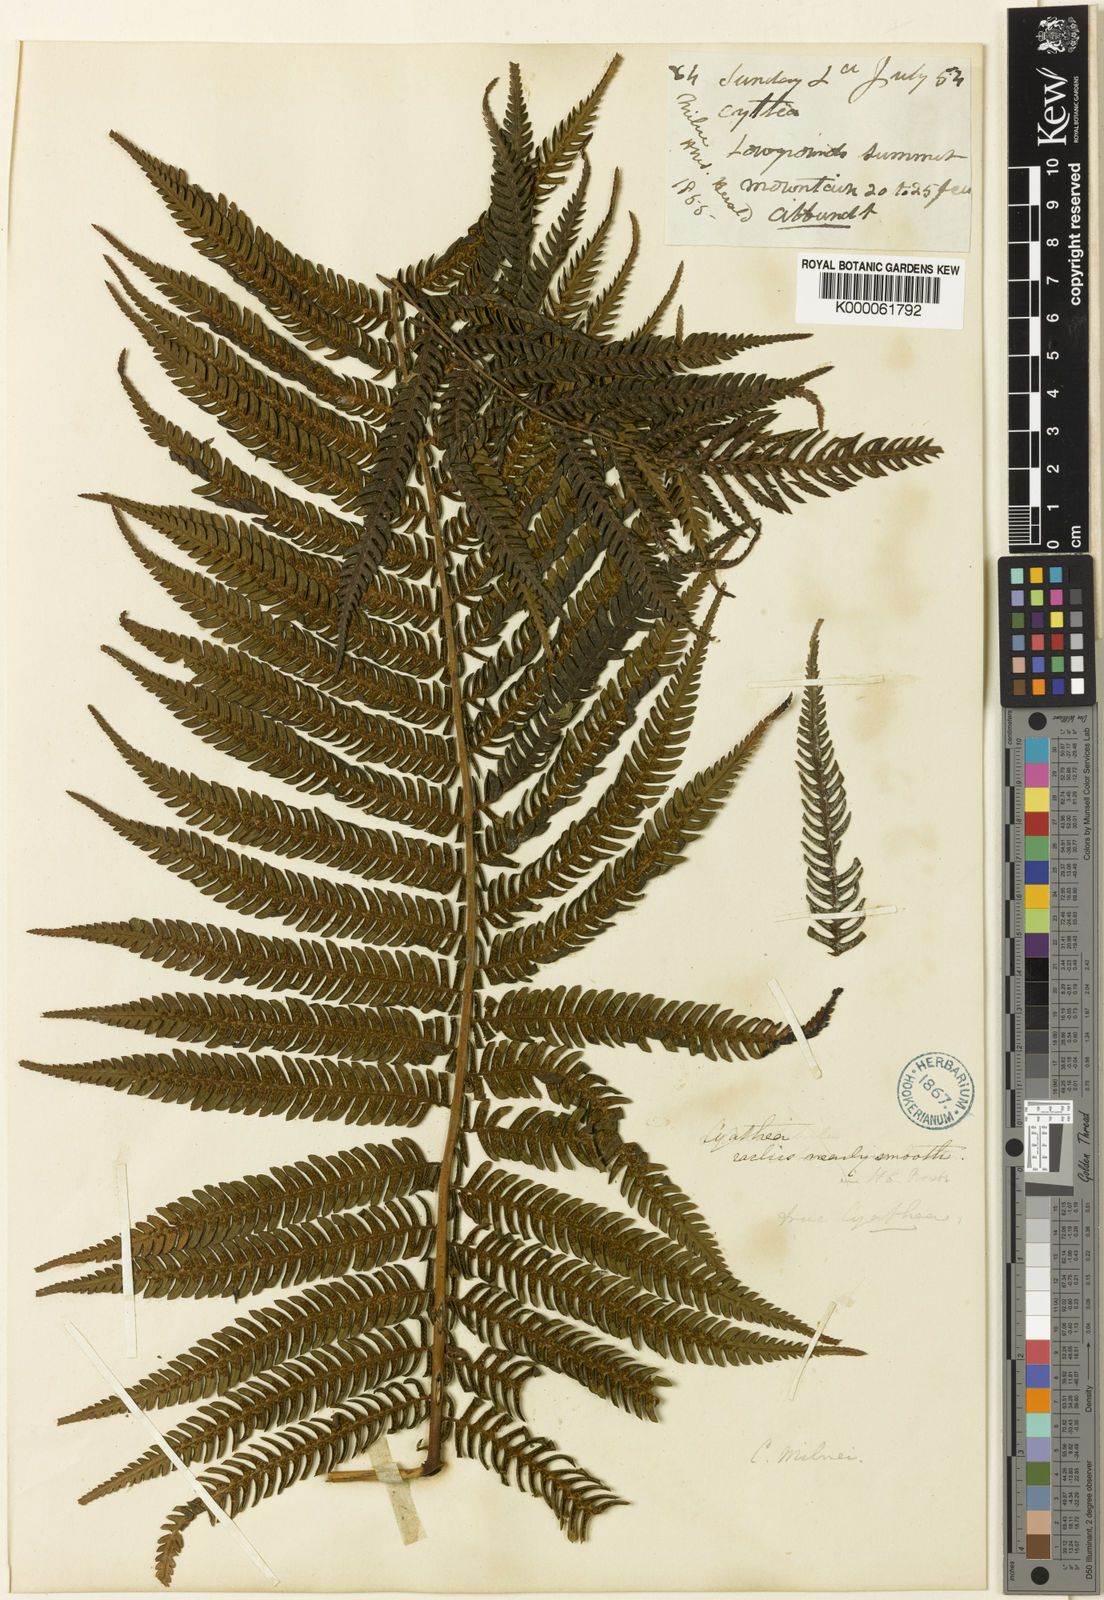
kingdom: Plantae
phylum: Tracheophyta
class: Polypodiopsida
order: Cyatheales
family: Cyatheaceae
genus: Alsophila
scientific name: Alsophila milnei
